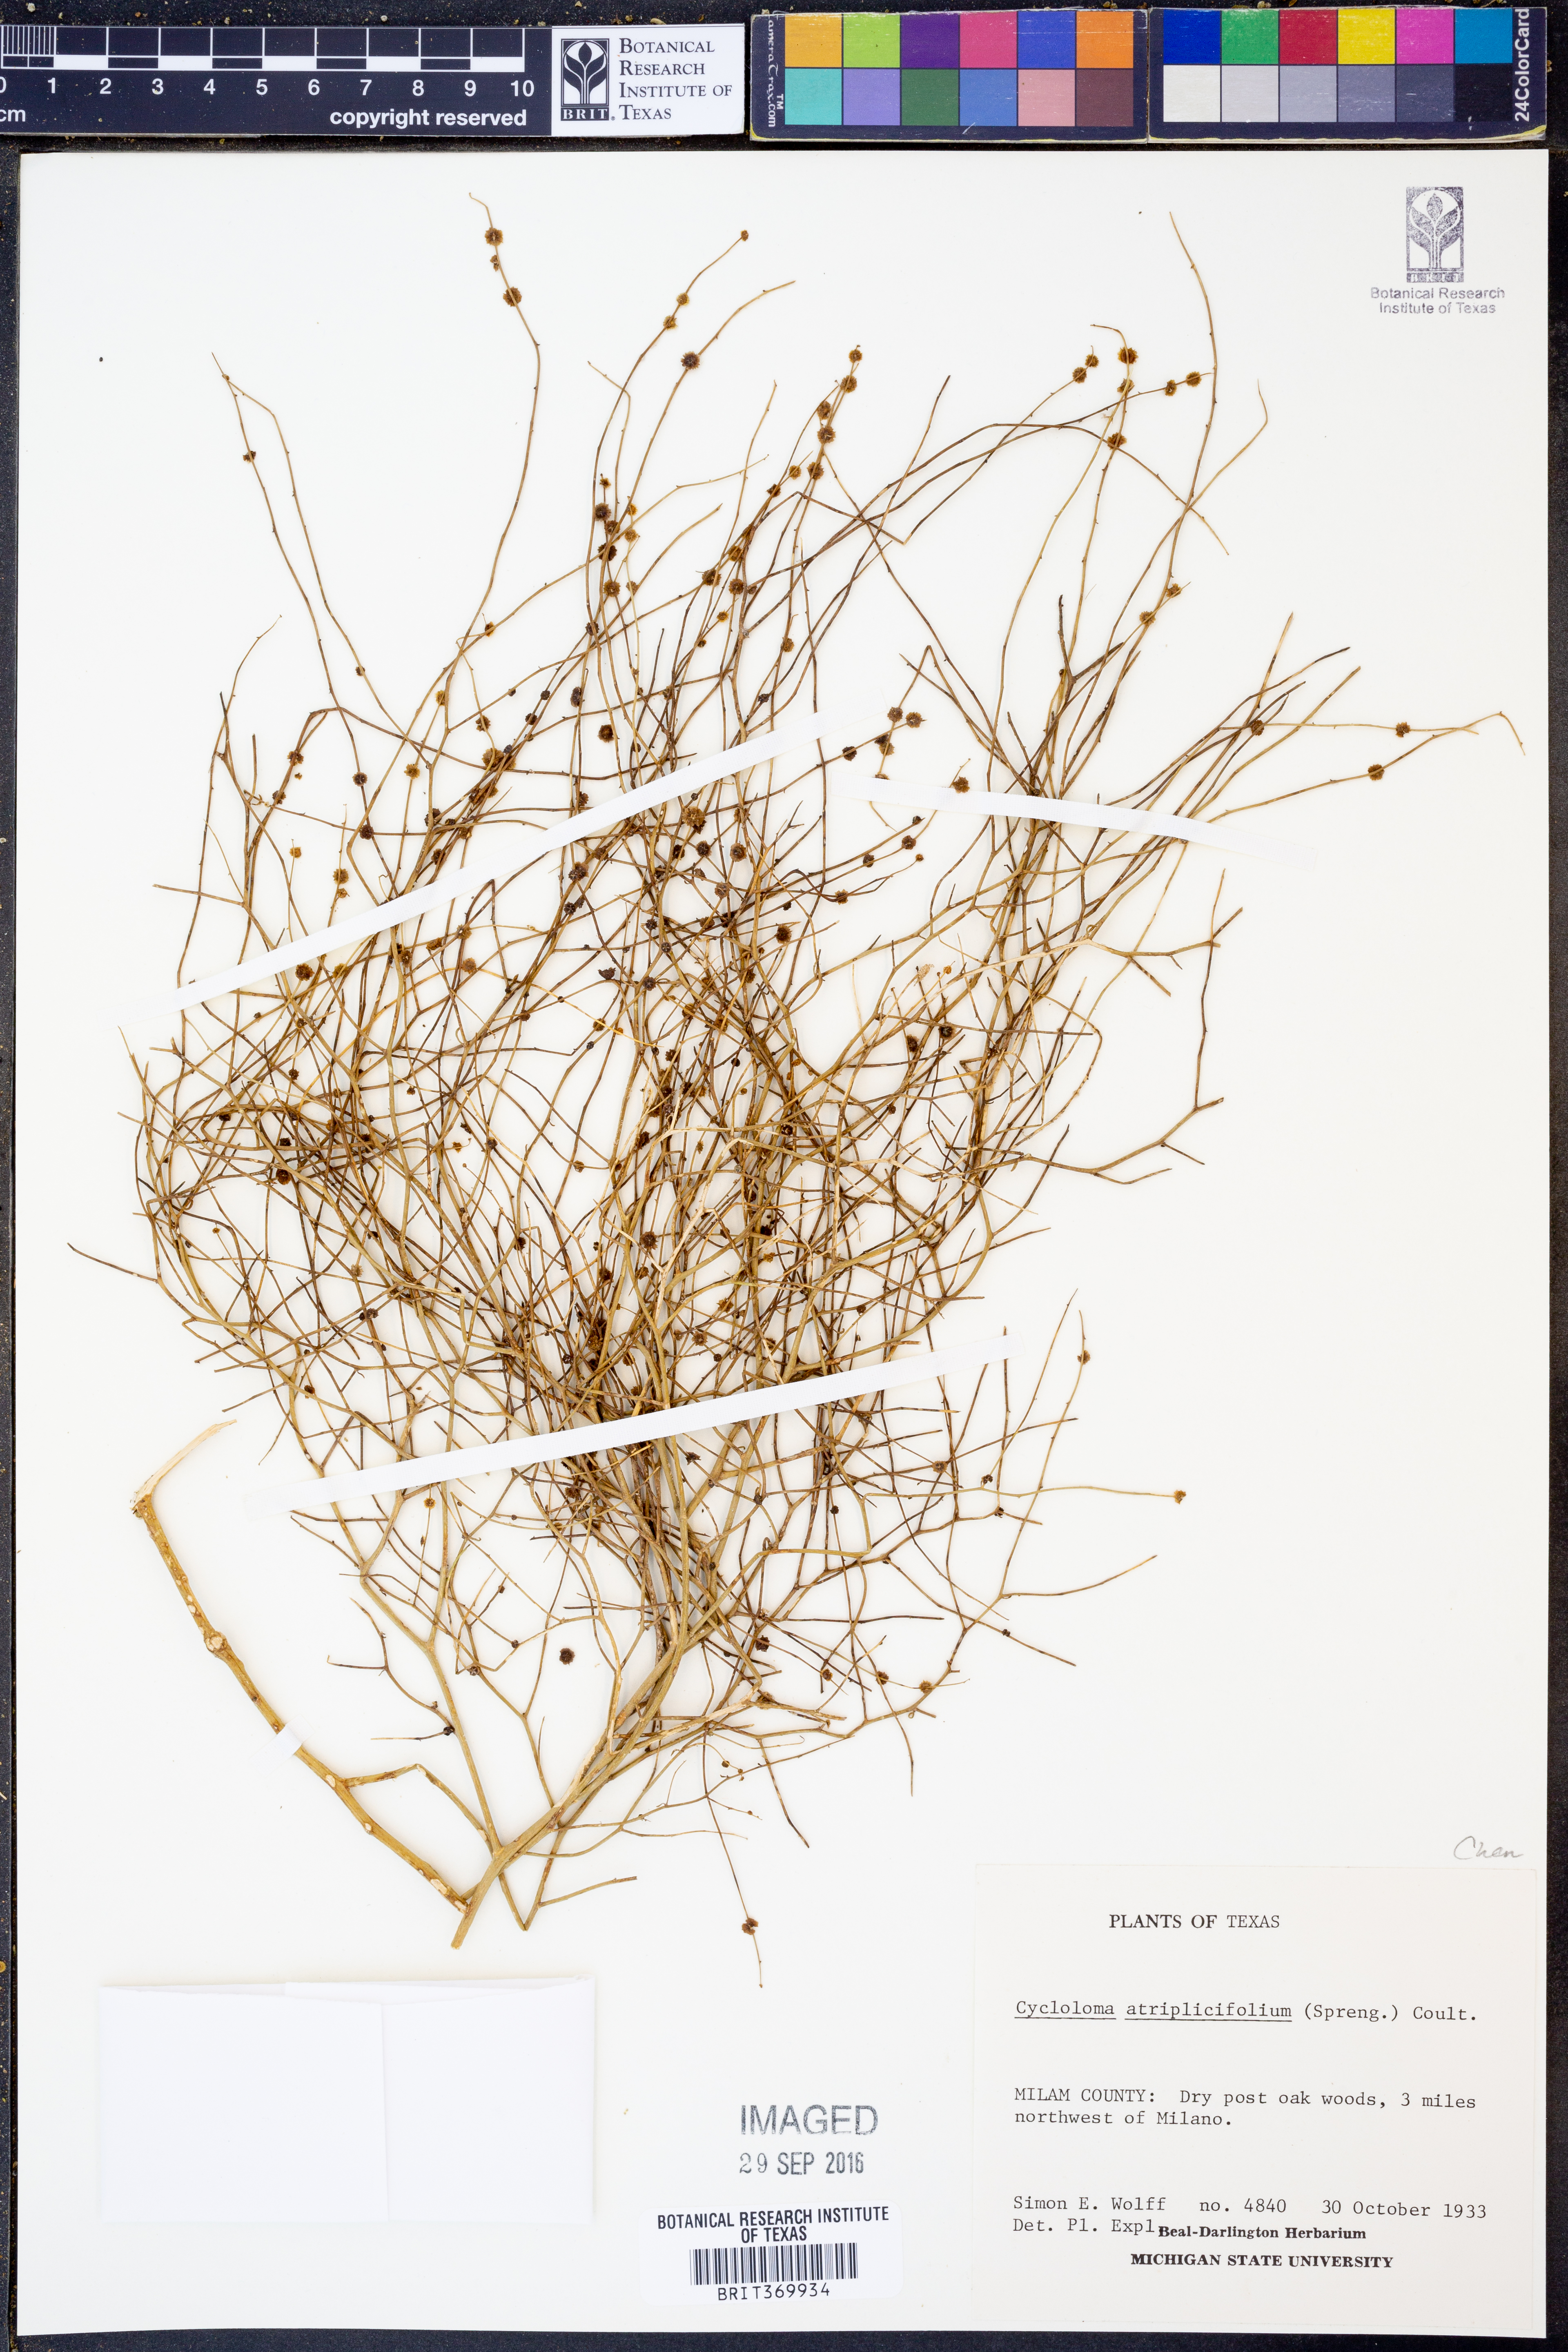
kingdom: Plantae
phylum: Tracheophyta
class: Magnoliopsida
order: Caryophyllales
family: Amaranthaceae
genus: Dysphania
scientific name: Dysphania atriplicifolia
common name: Plains tumbleweed
